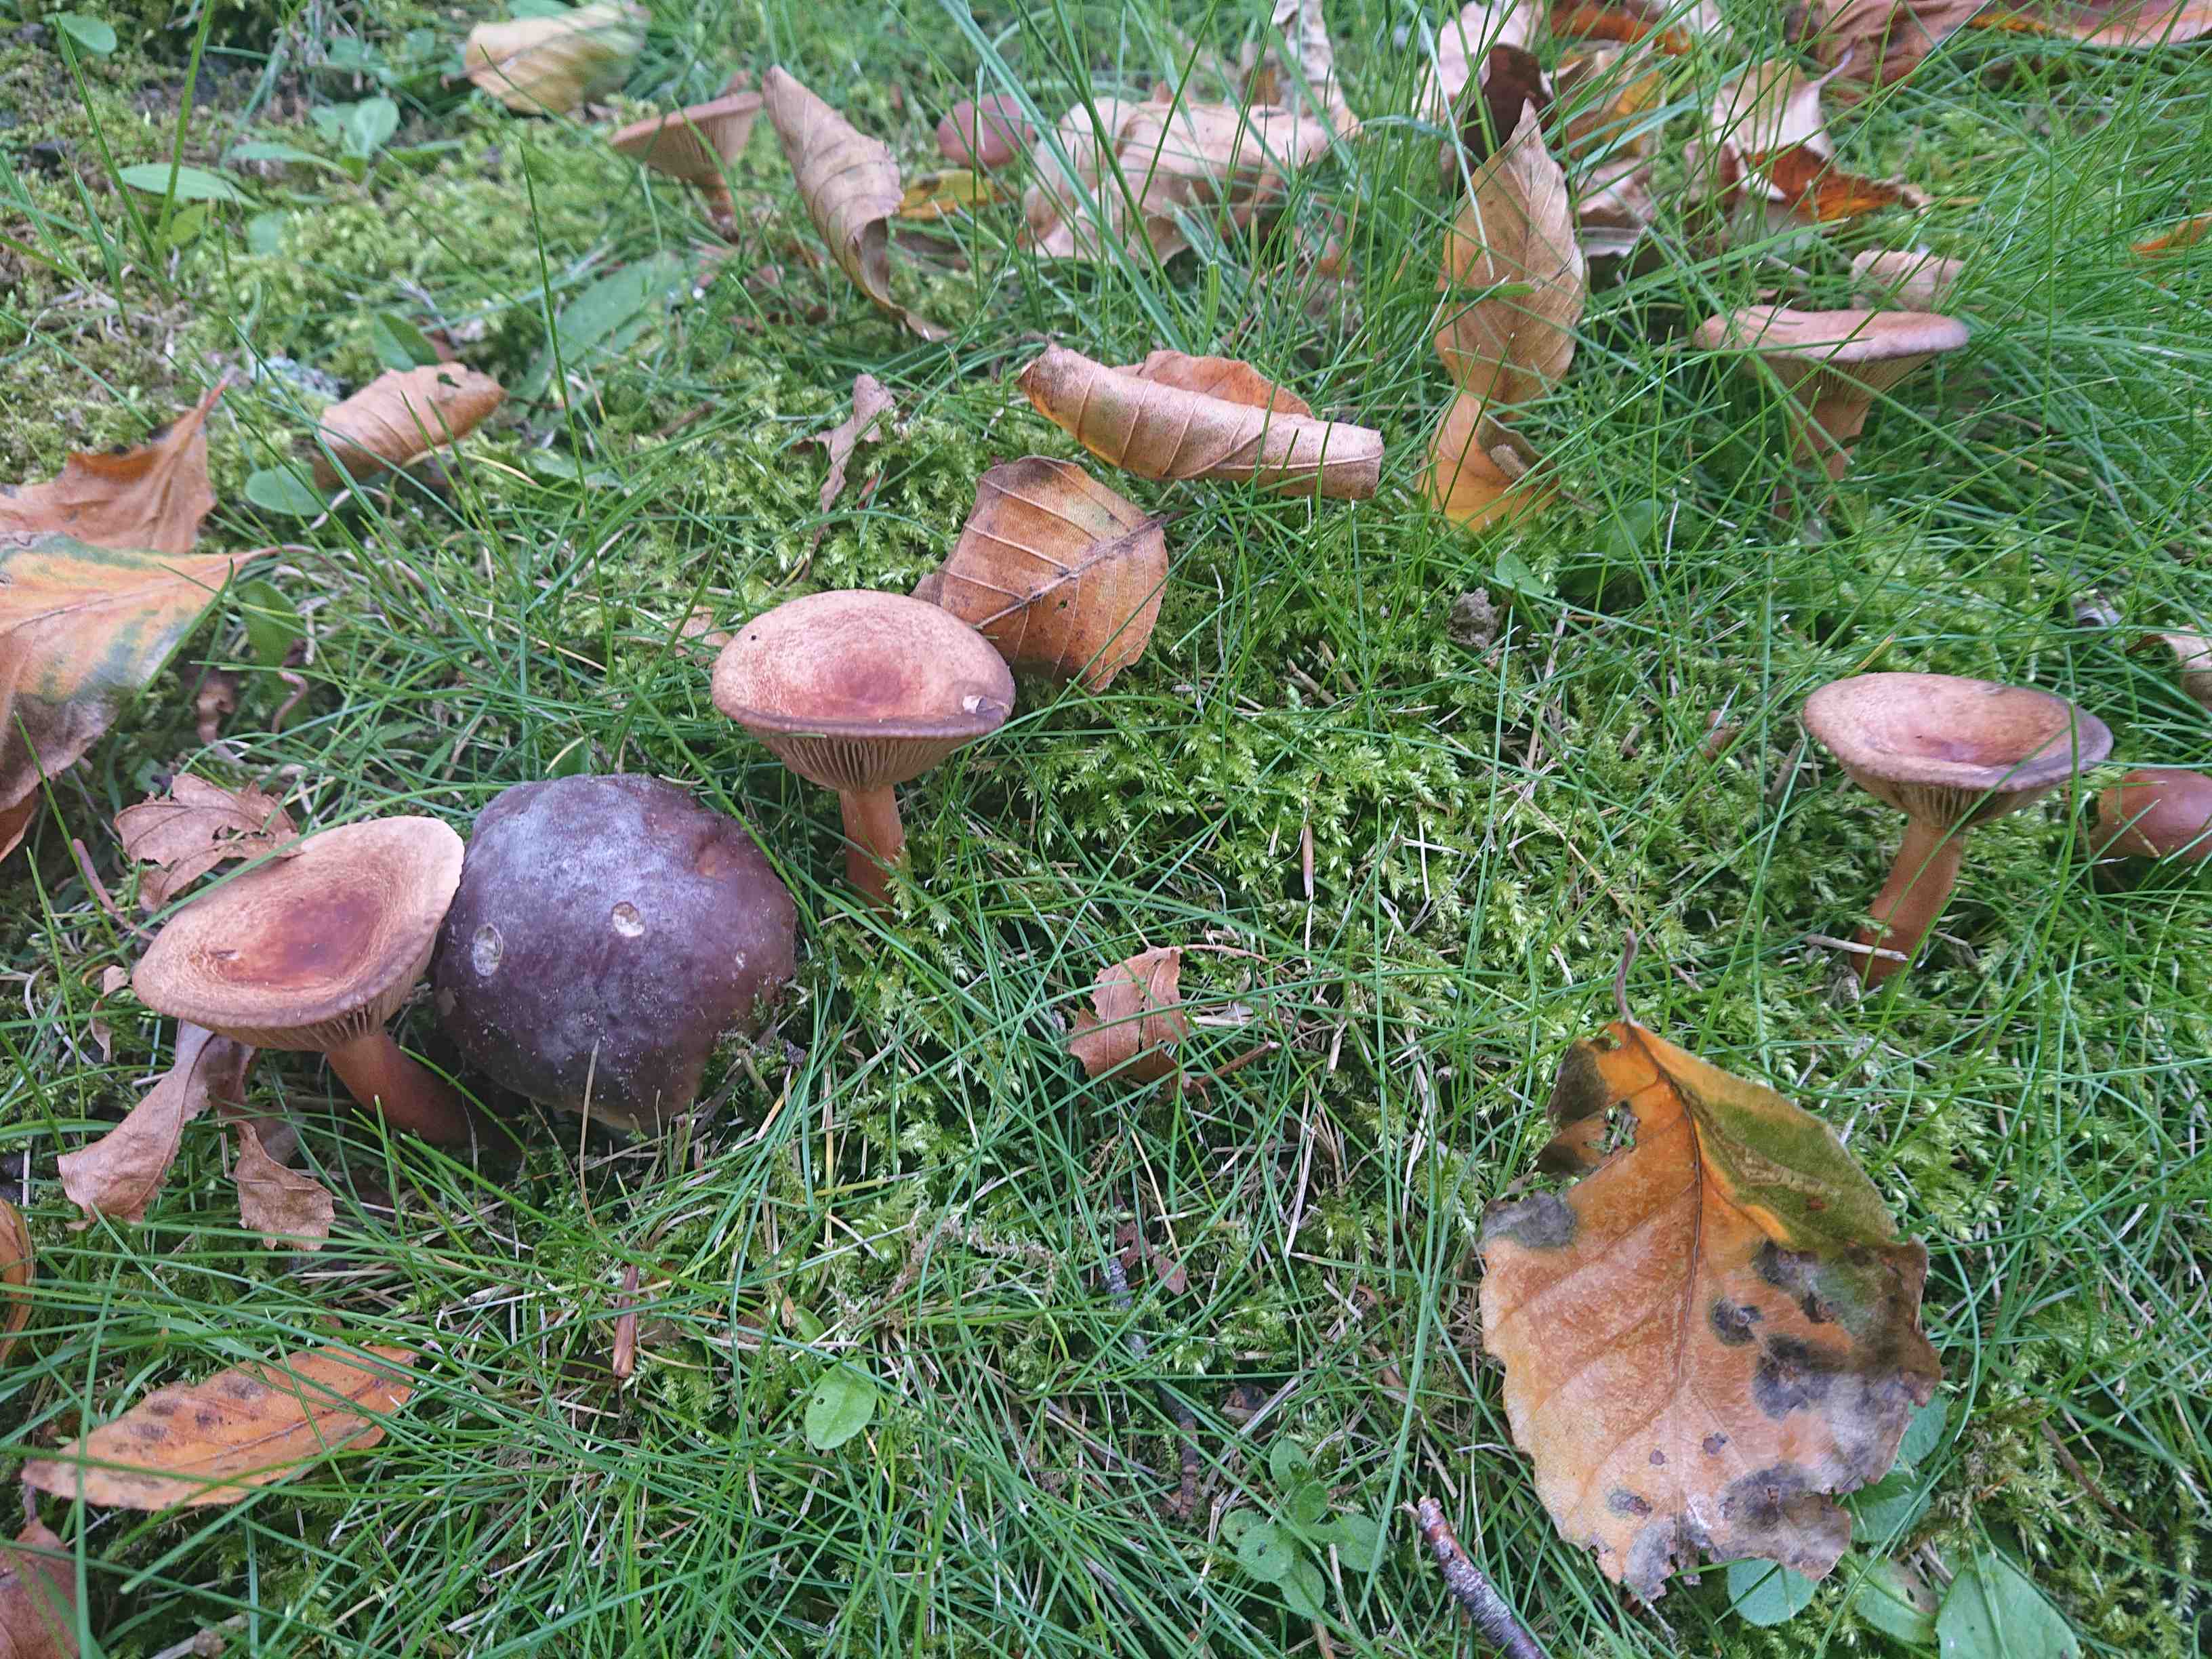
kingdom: Fungi
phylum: Basidiomycota
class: Agaricomycetes
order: Russulales
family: Russulaceae
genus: Lactarius
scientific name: Lactarius
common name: mælkehat
